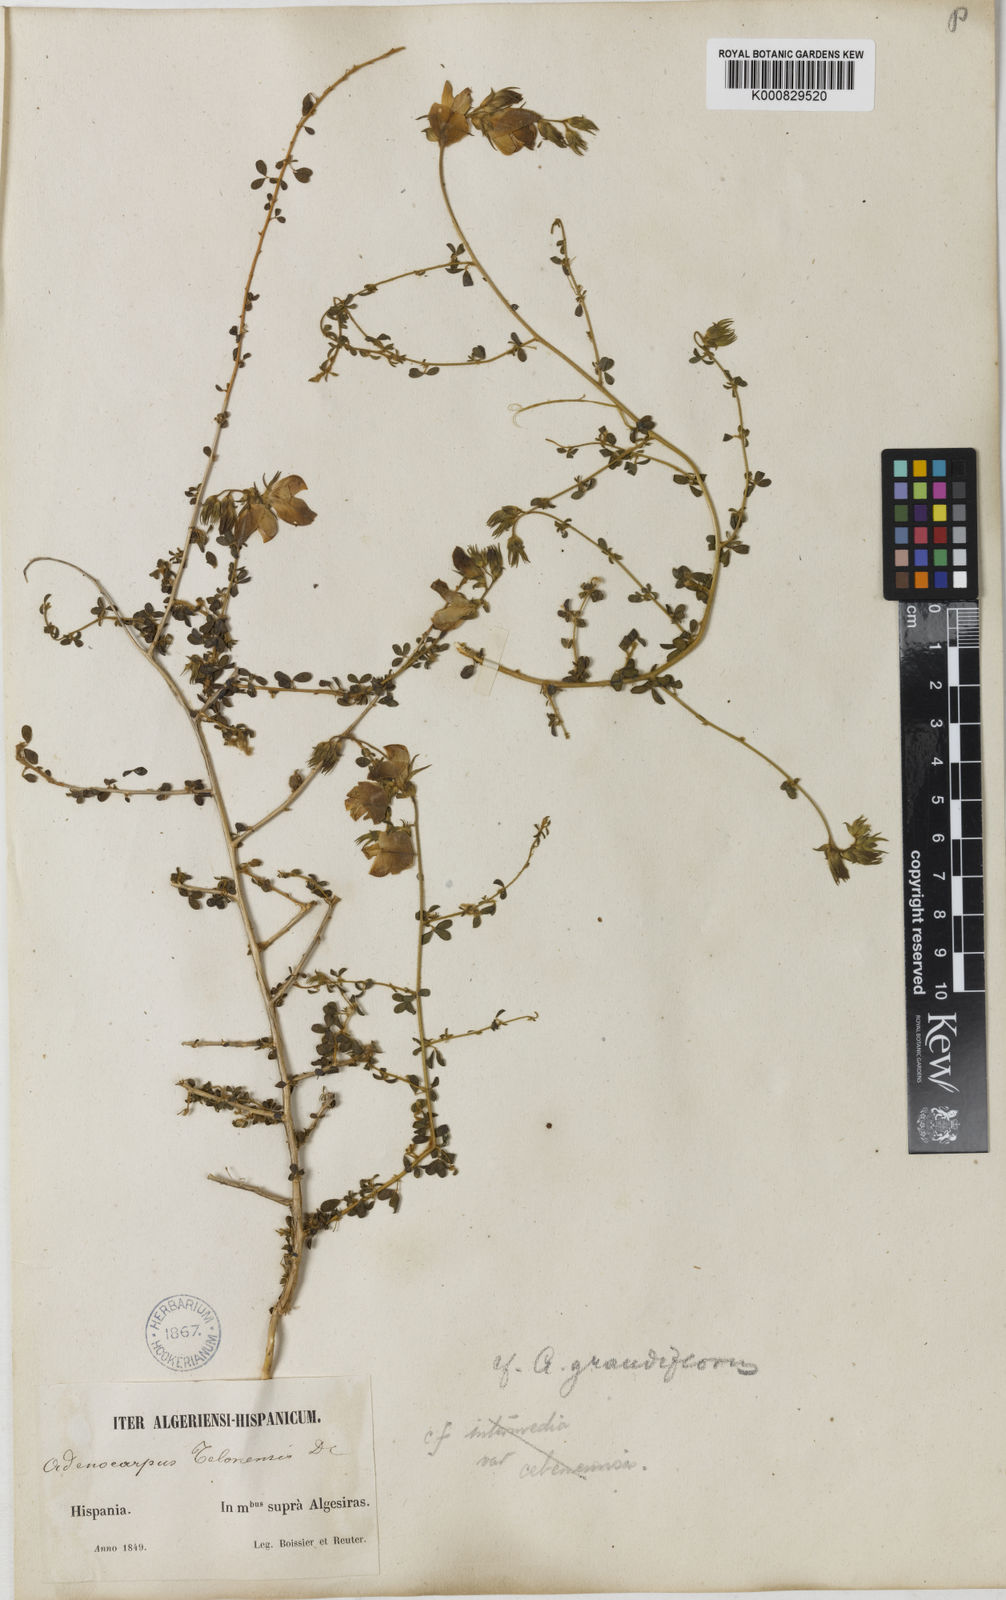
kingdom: Plantae
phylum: Tracheophyta
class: Magnoliopsida
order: Fabales
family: Fabaceae
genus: Adenocarpus
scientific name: Adenocarpus telonensis
